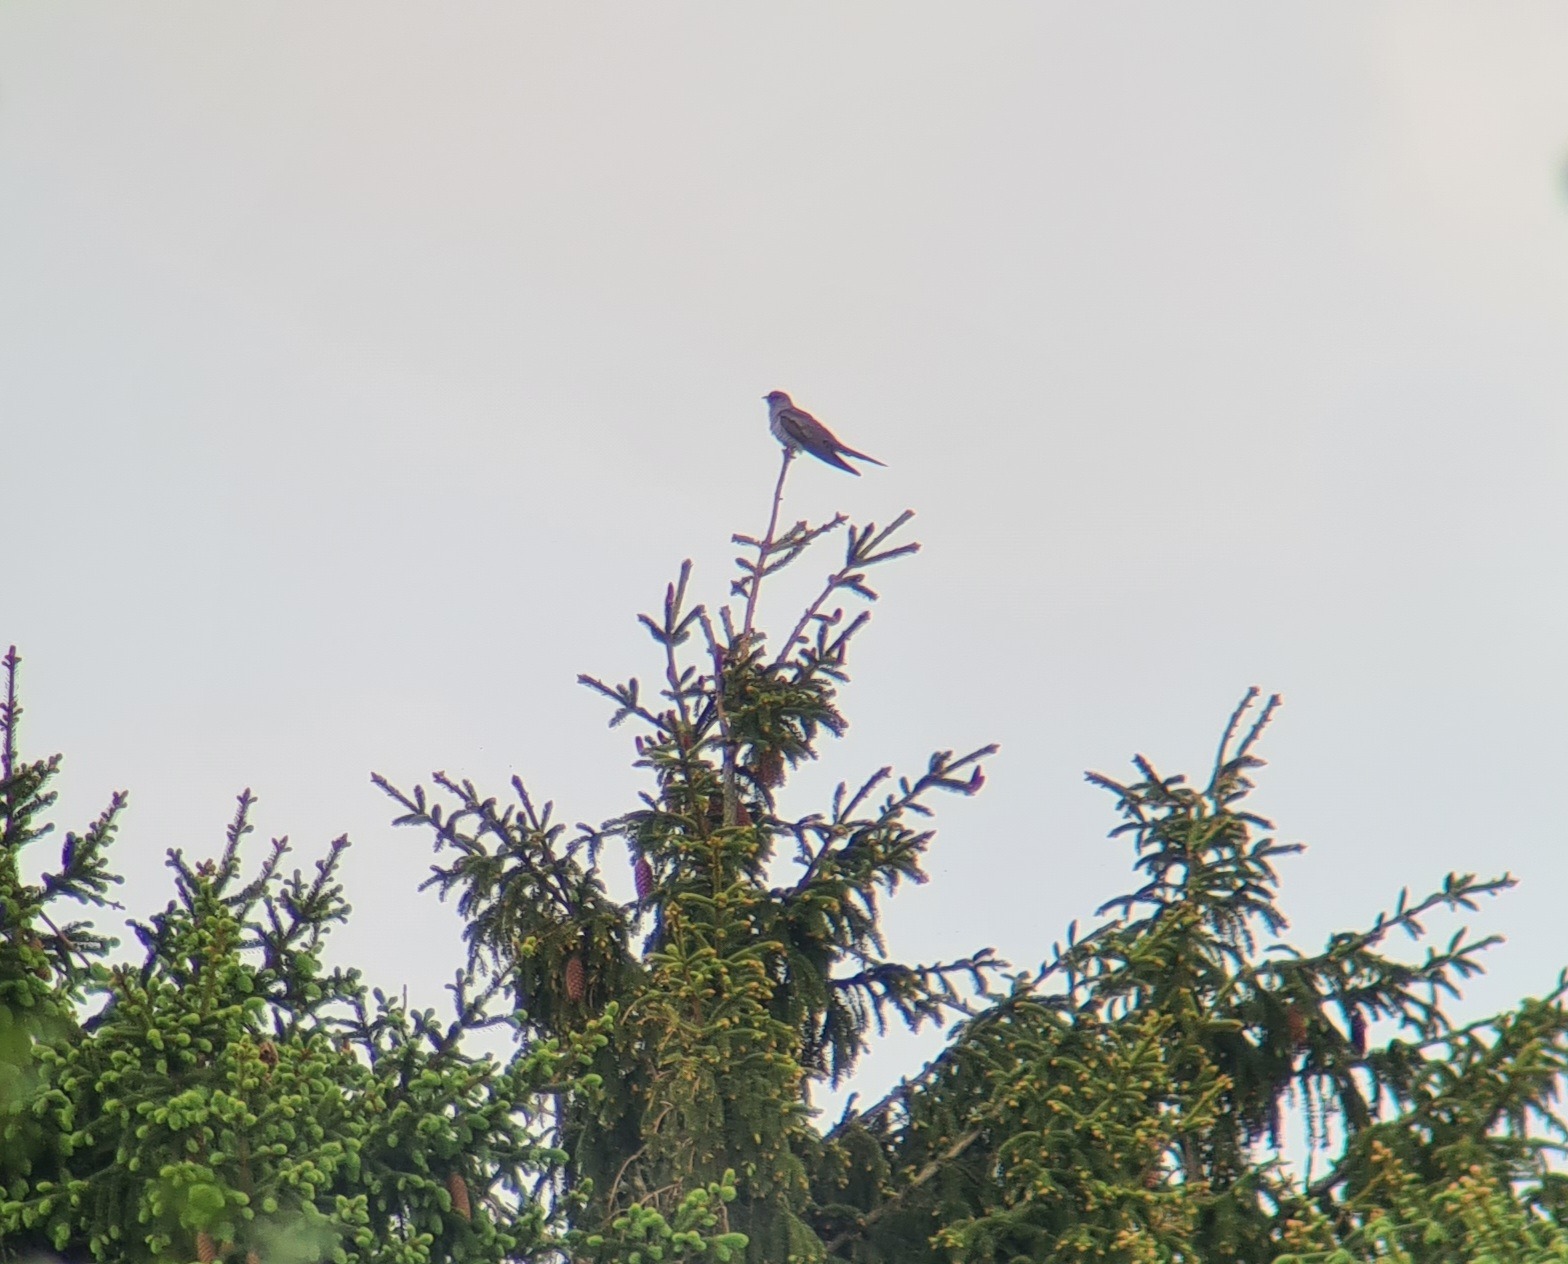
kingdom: Animalia
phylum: Chordata
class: Aves
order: Cuculiformes
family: Cuculidae
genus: Cuculus
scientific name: Cuculus canorus
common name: Gøg
